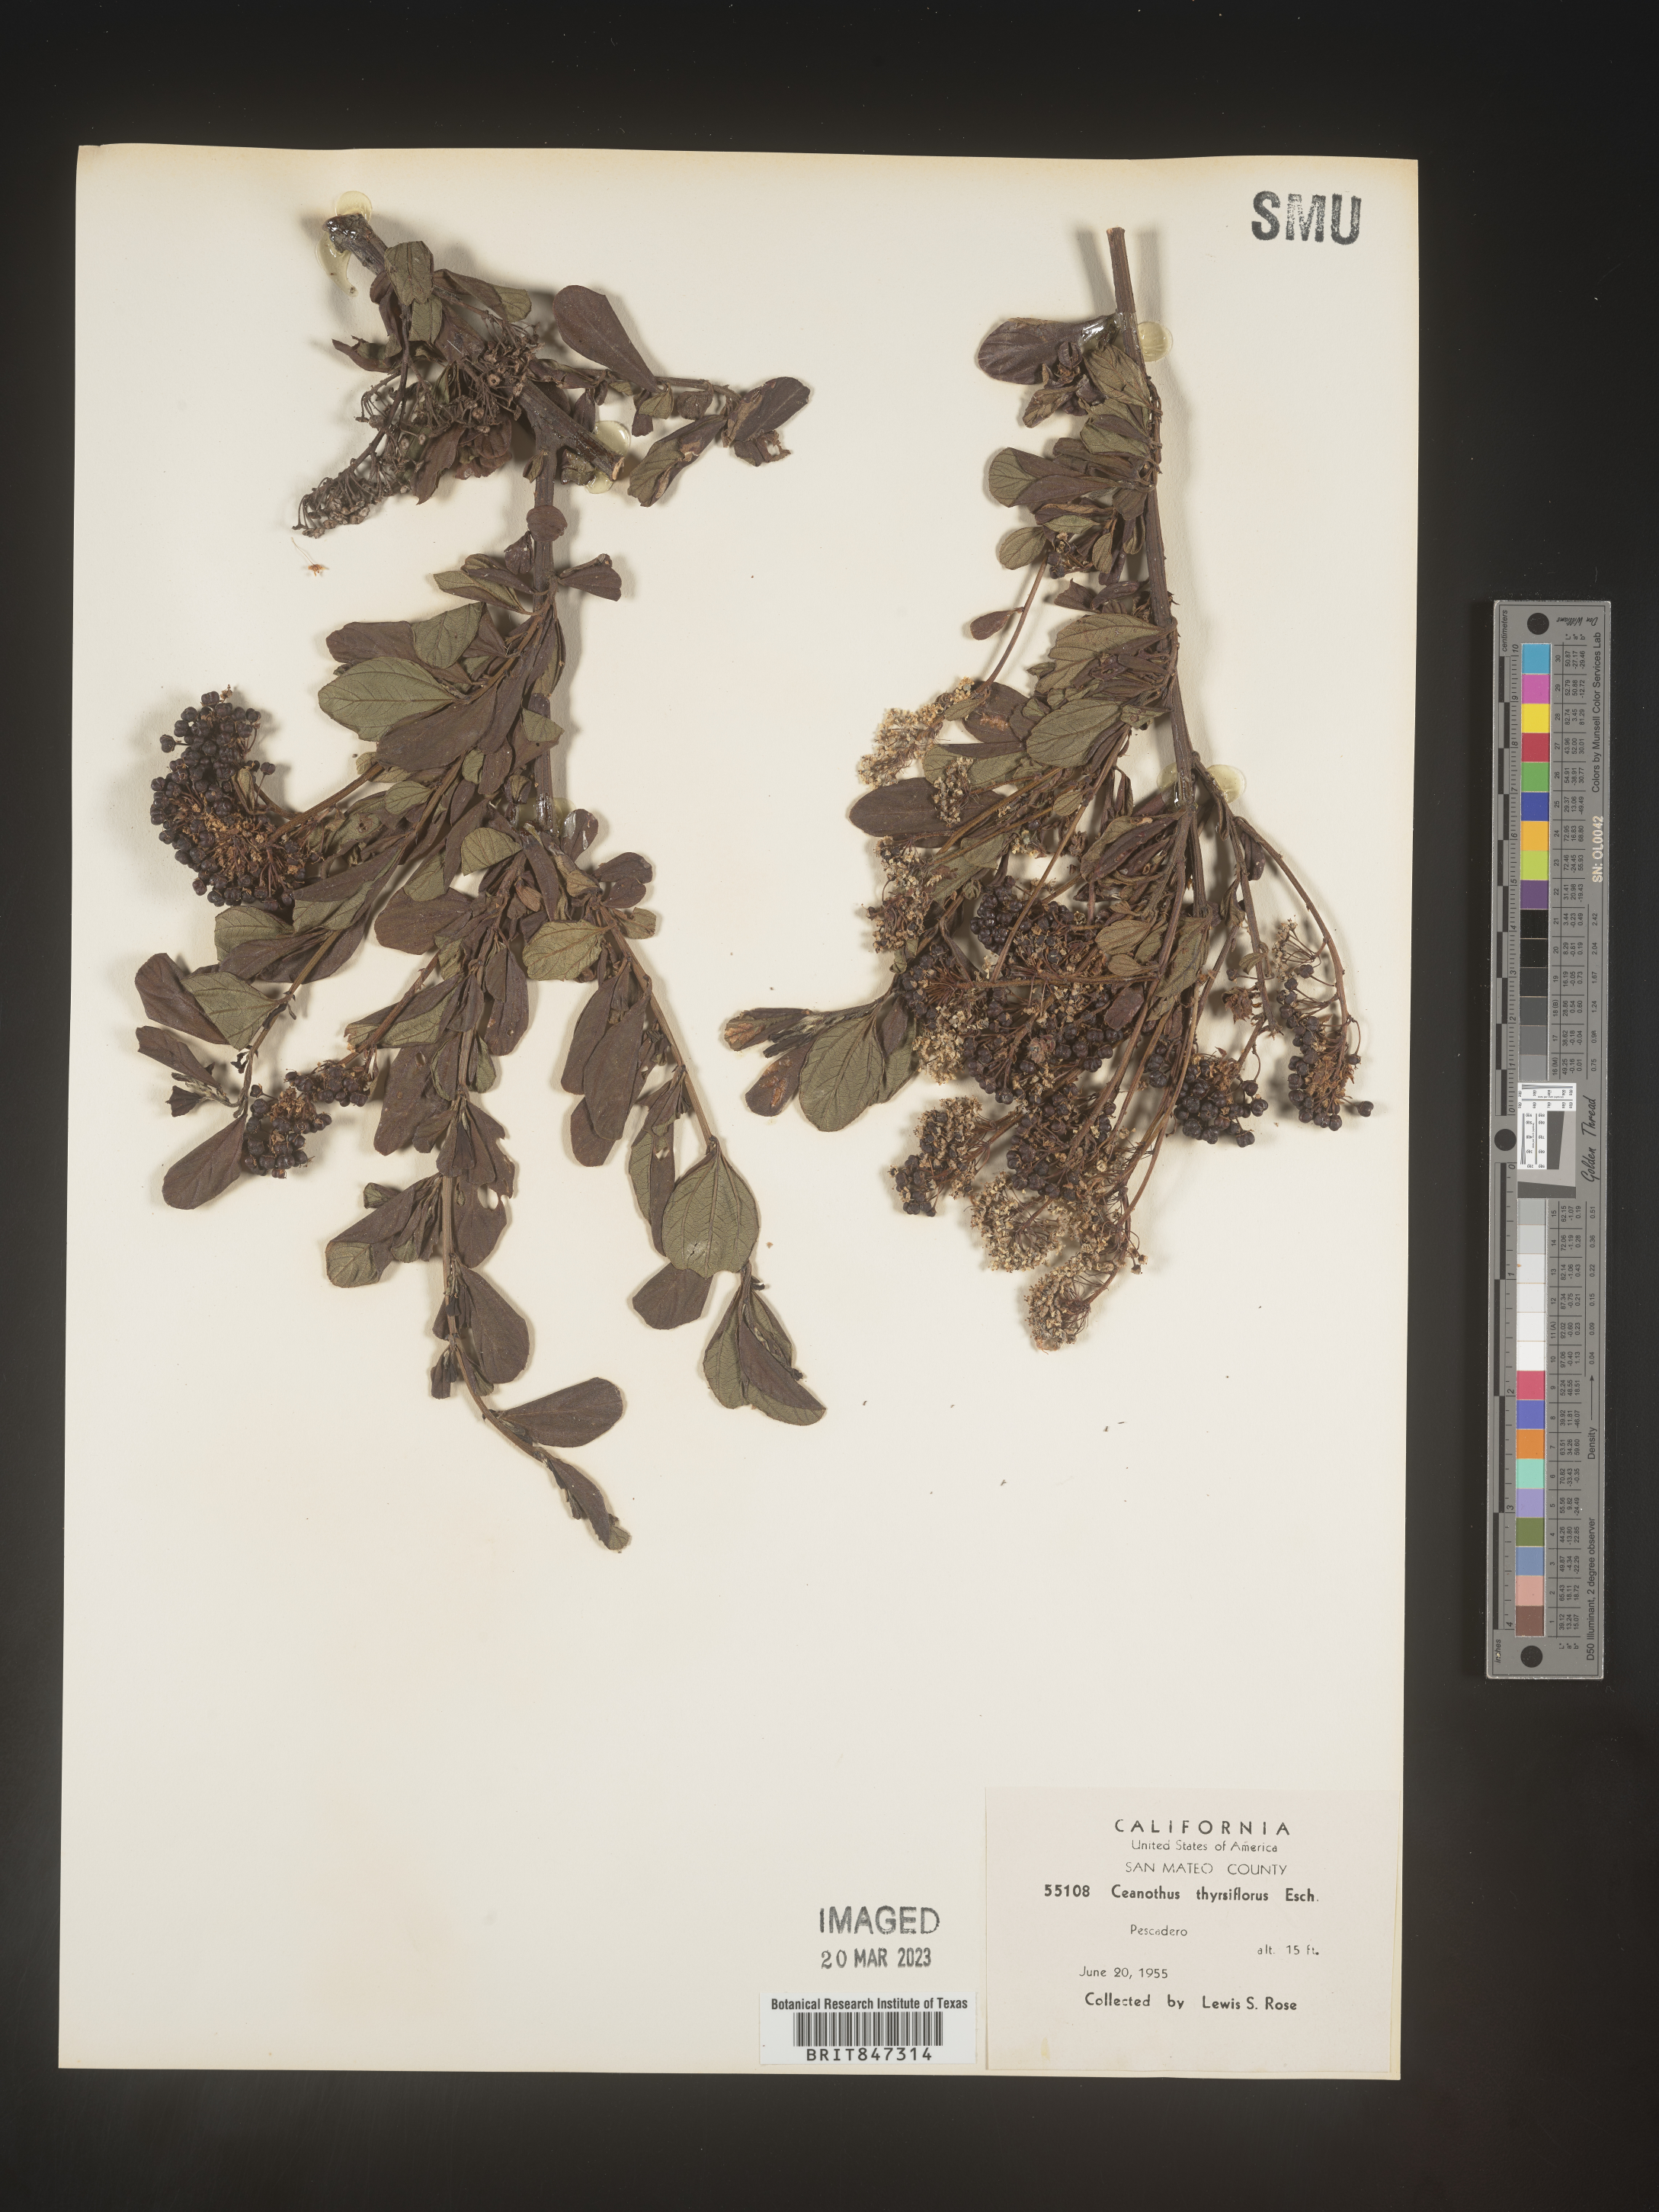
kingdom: Plantae
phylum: Tracheophyta
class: Magnoliopsida
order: Rosales
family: Rhamnaceae
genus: Ceanothus
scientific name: Ceanothus
